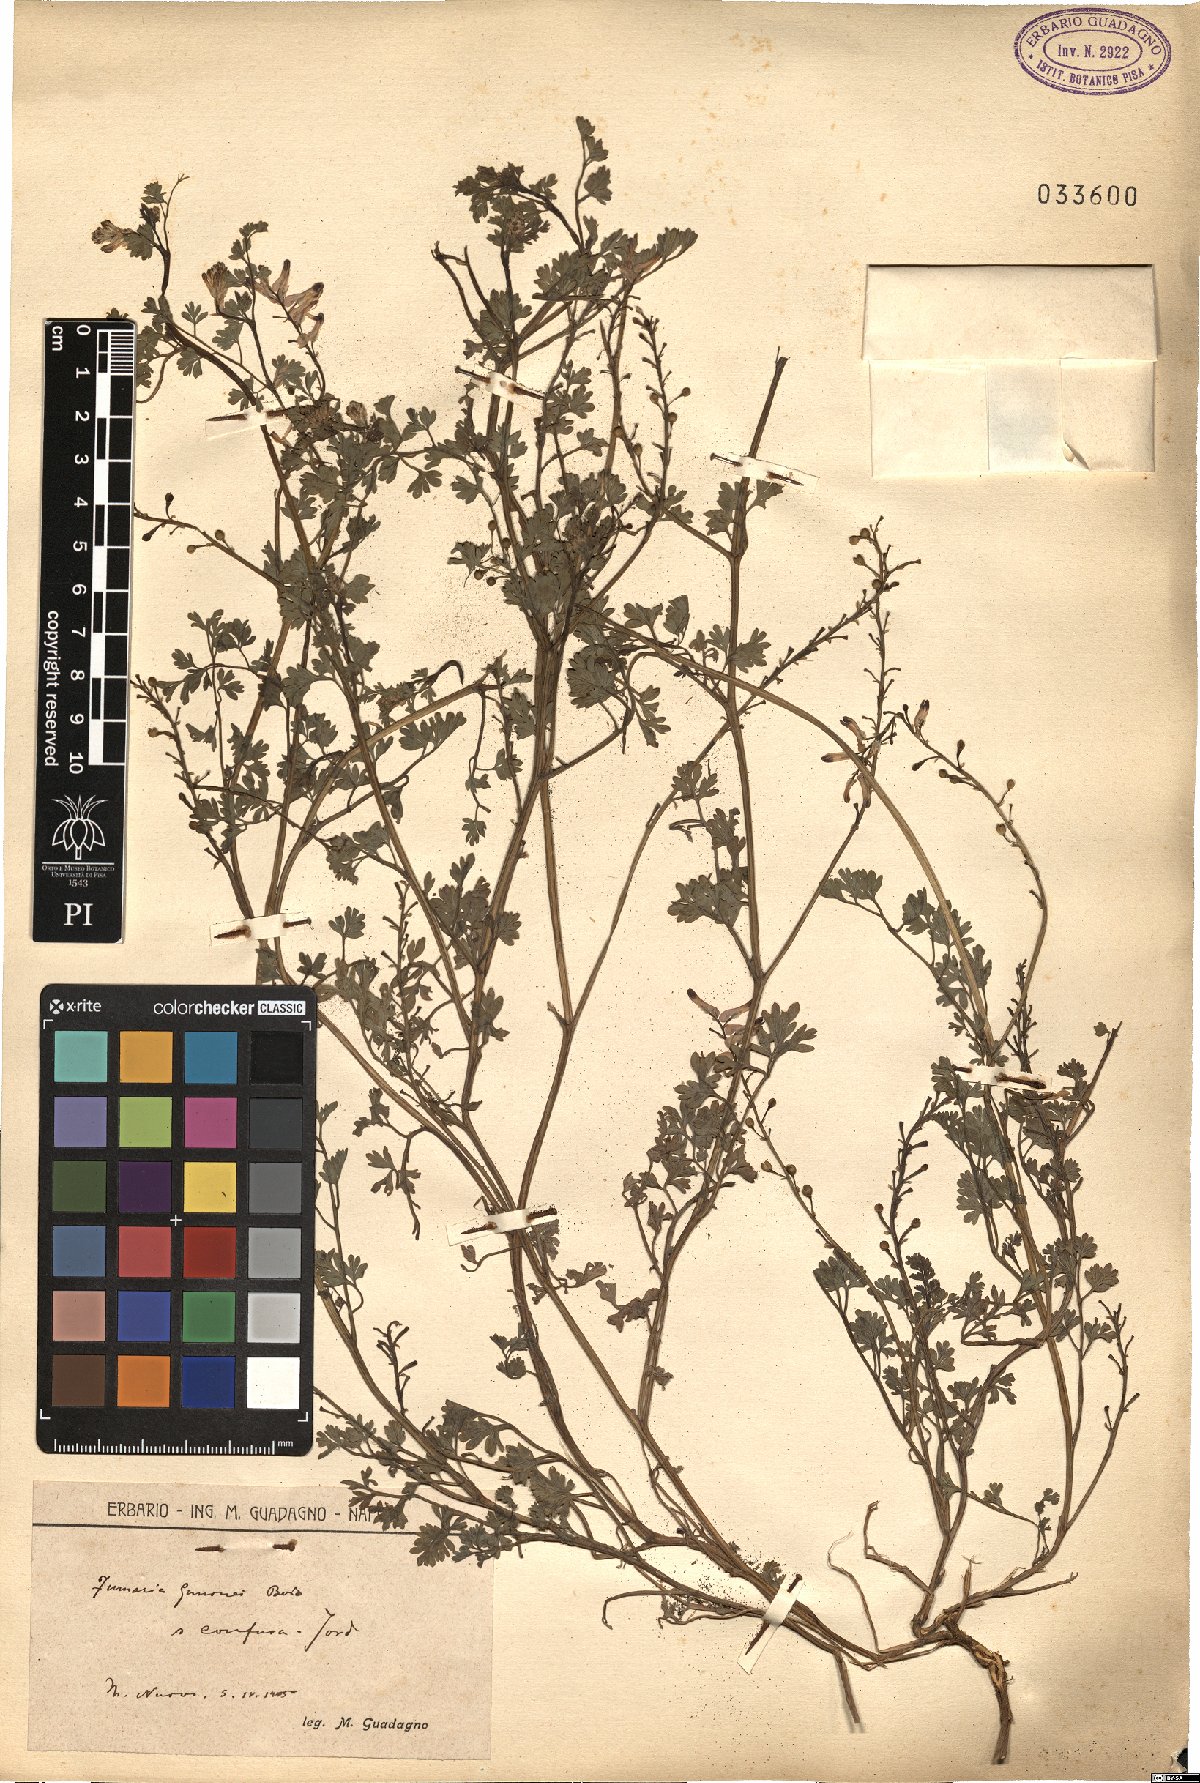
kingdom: Plantae
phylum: Tracheophyta
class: Magnoliopsida
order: Ranunculales
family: Papaveraceae
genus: Fumaria
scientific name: Fumaria bastardii
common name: Tall ramping-fumitory
